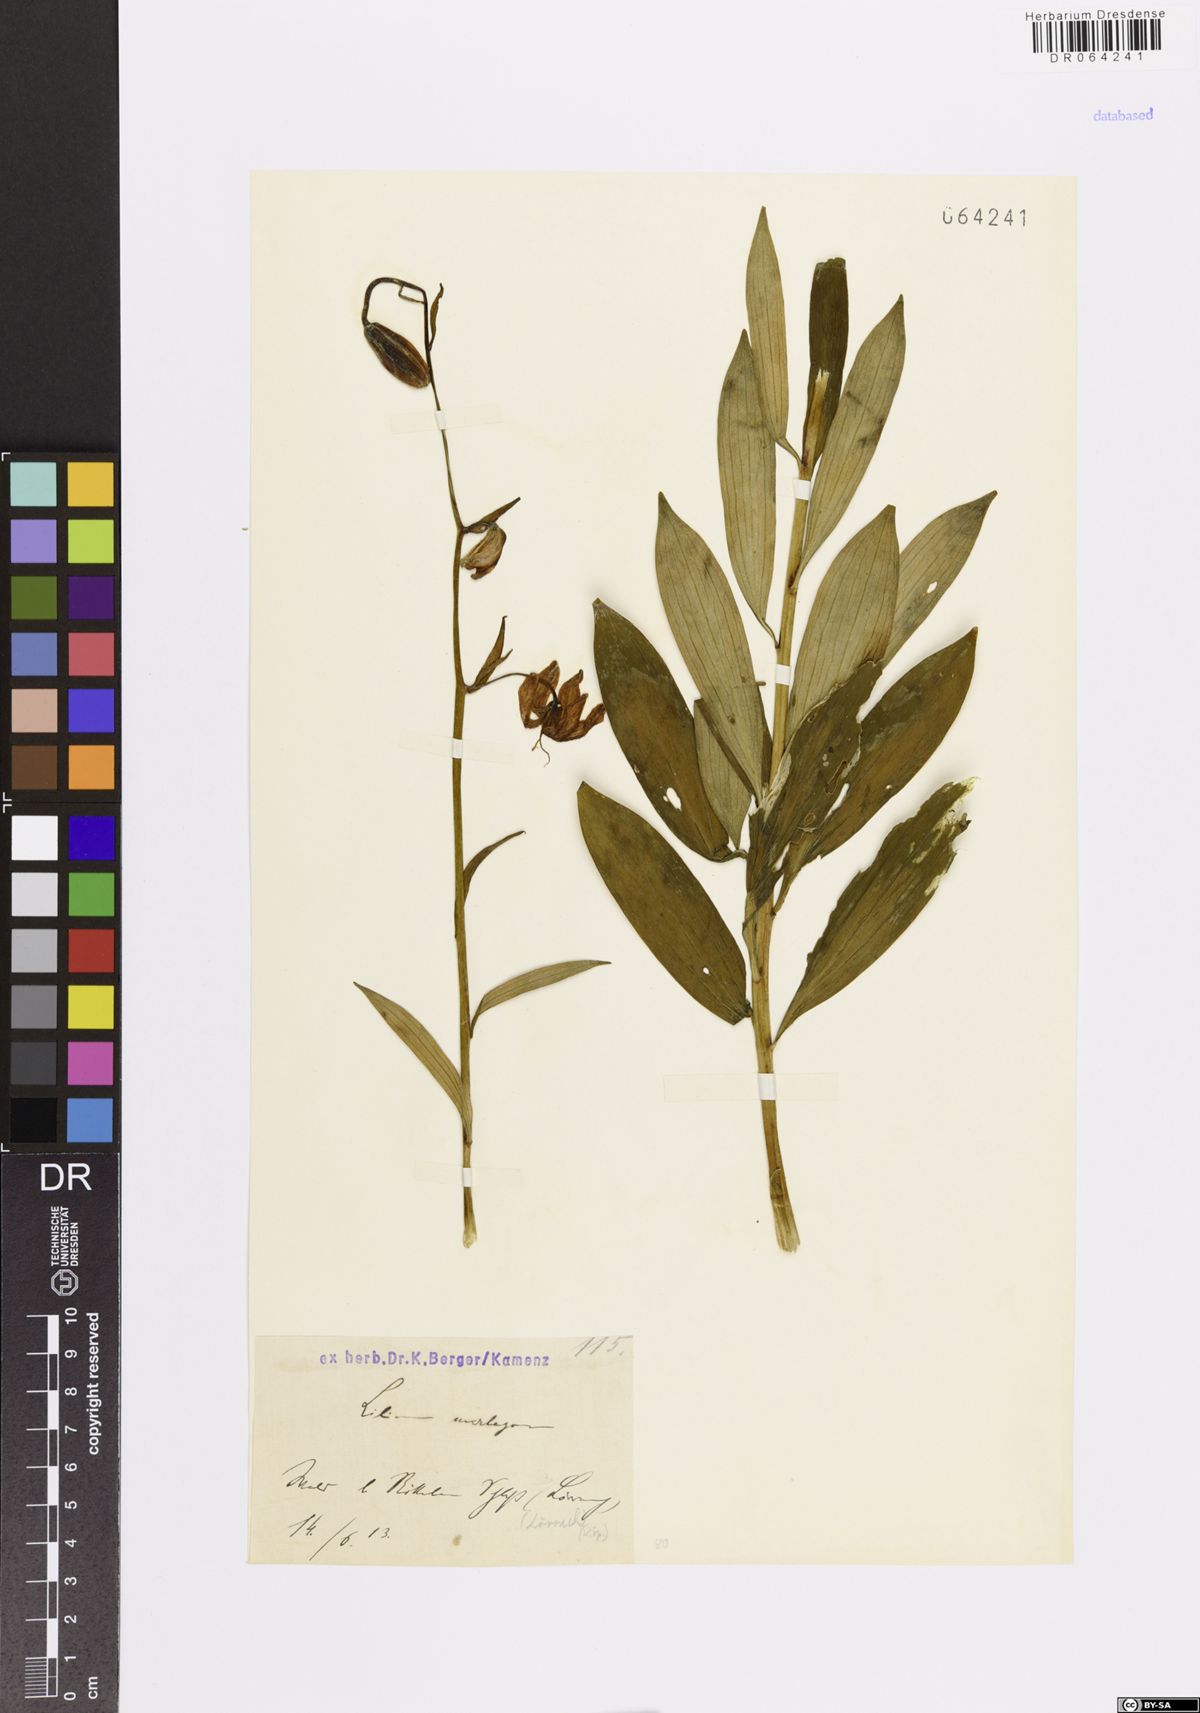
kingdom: Plantae
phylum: Tracheophyta
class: Liliopsida
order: Liliales
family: Liliaceae
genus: Lilium
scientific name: Lilium martagon
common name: Martagon lily
